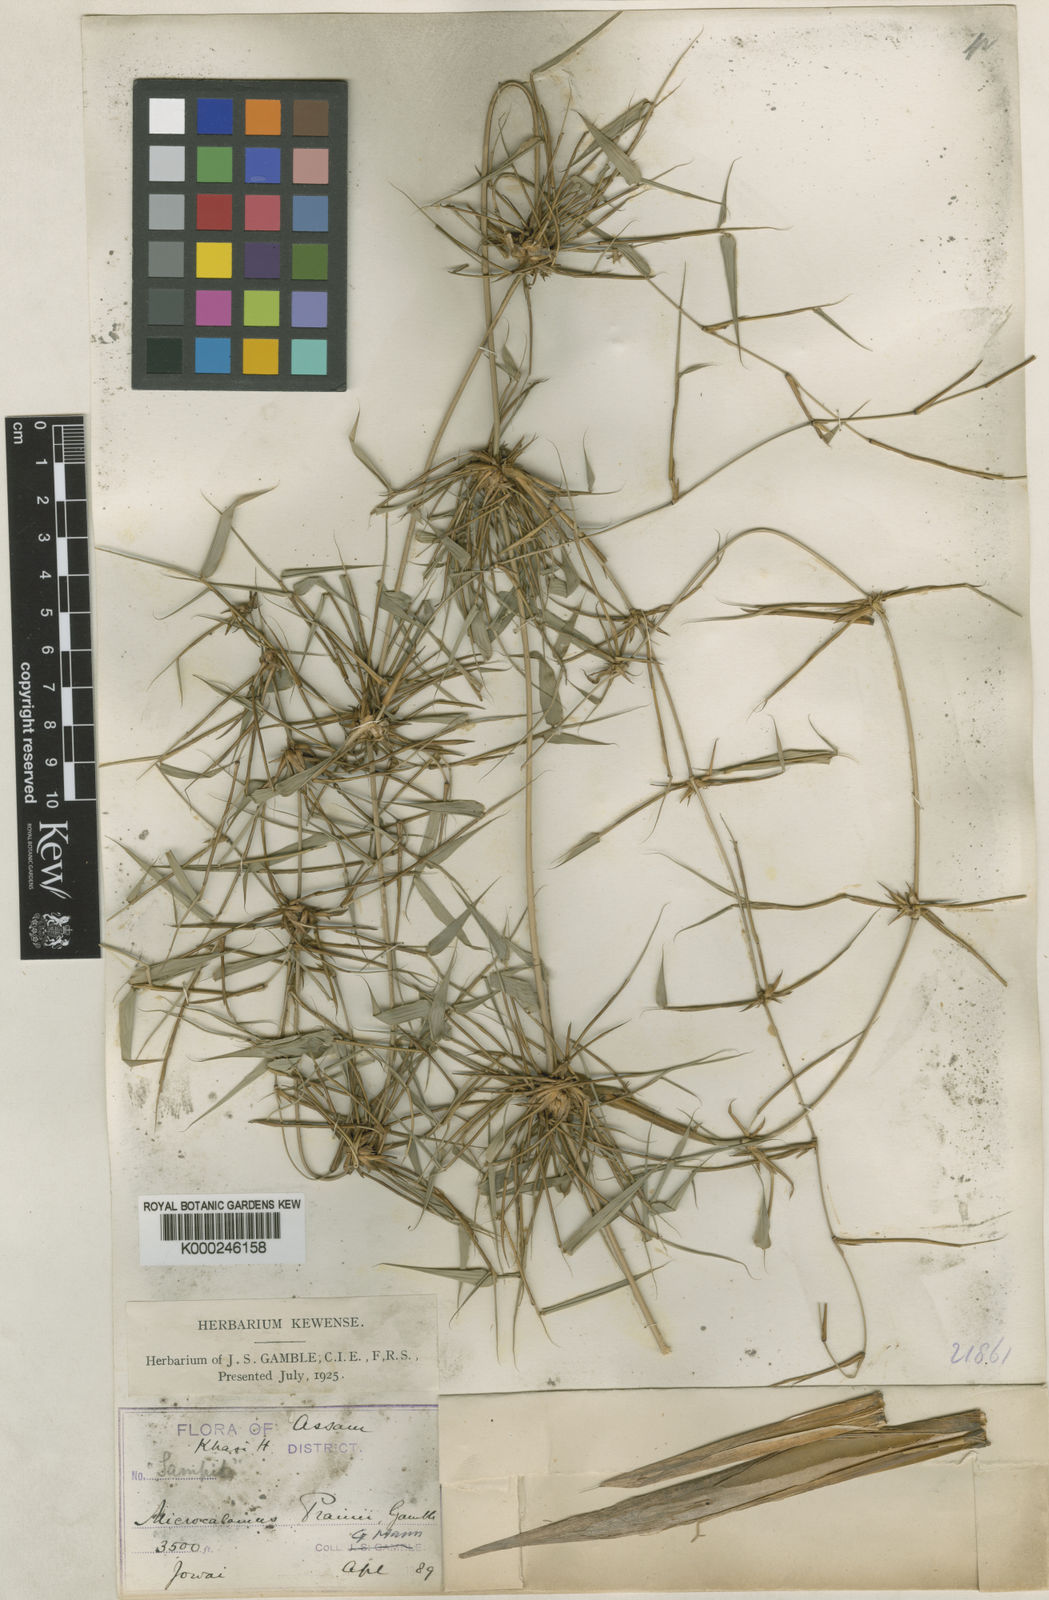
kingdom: Plantae
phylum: Tracheophyta
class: Liliopsida
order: Poales
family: Poaceae
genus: Neomicrocalamus
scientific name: Neomicrocalamus prainii
